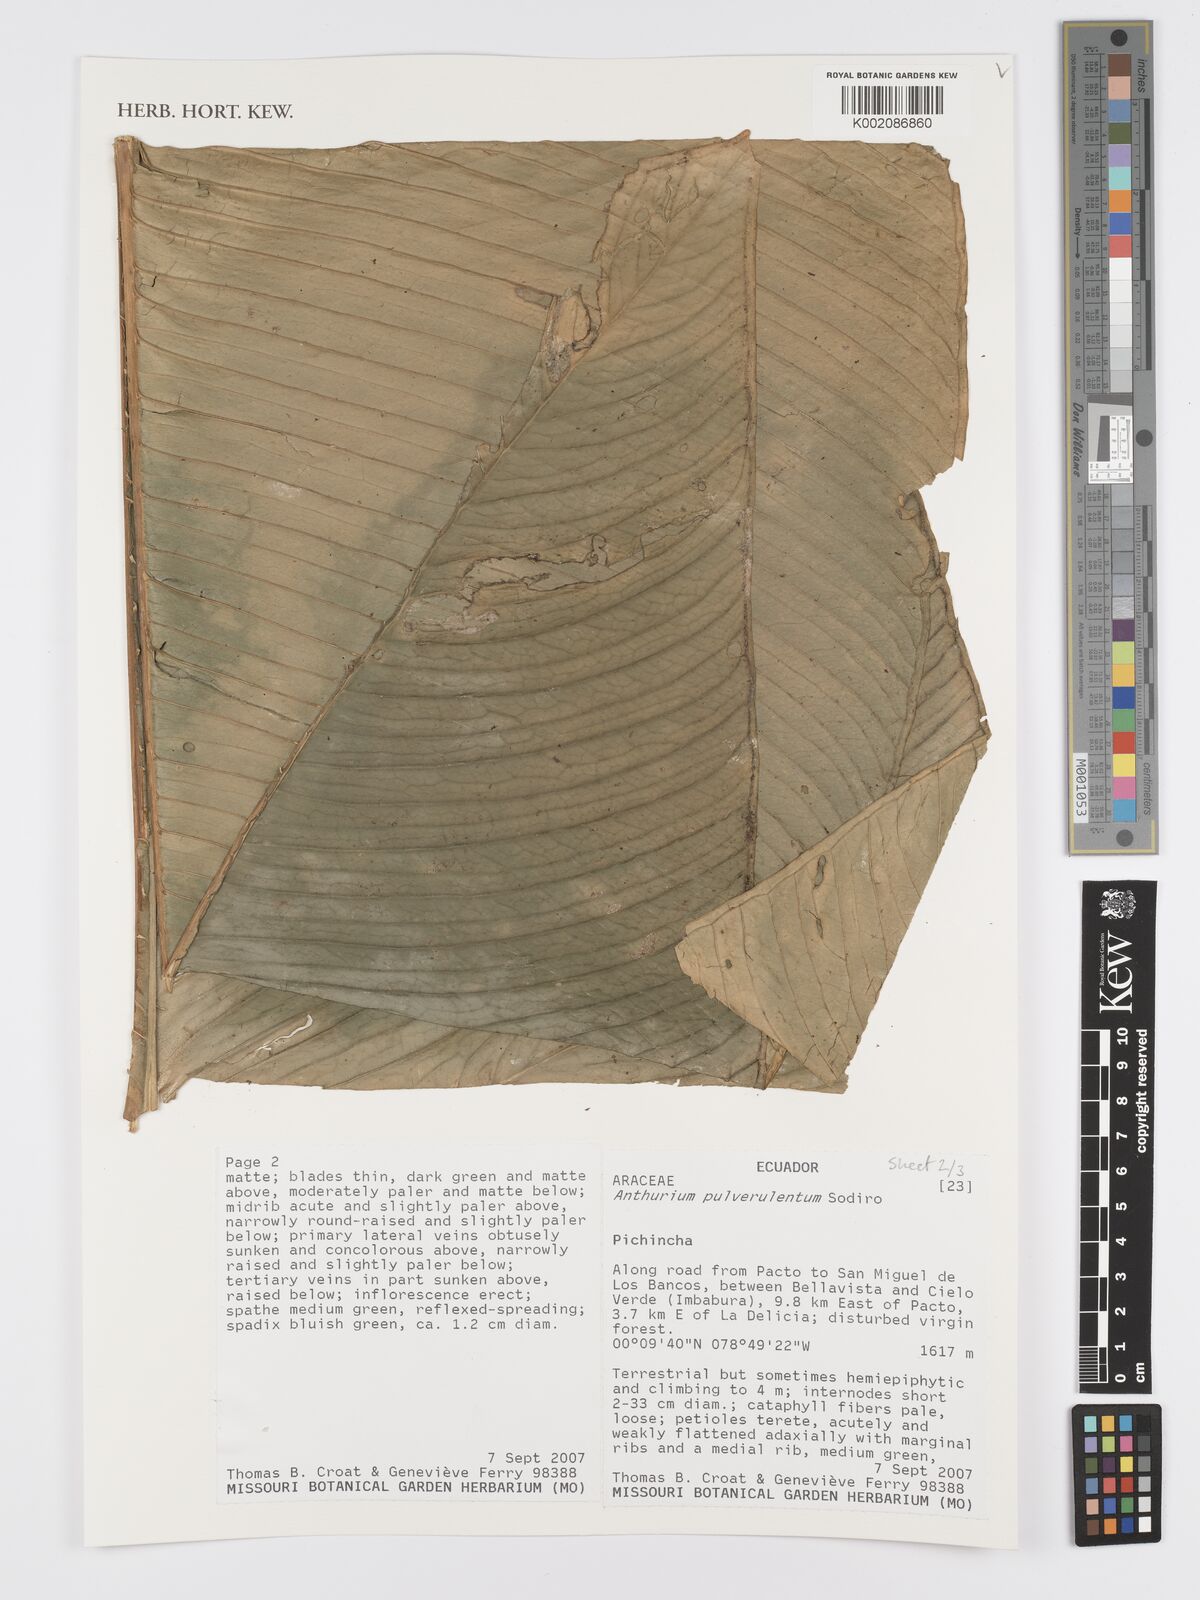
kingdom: Plantae
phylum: Tracheophyta
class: Liliopsida
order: Alismatales
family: Araceae
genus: Anthurium
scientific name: Anthurium pulverulentum
